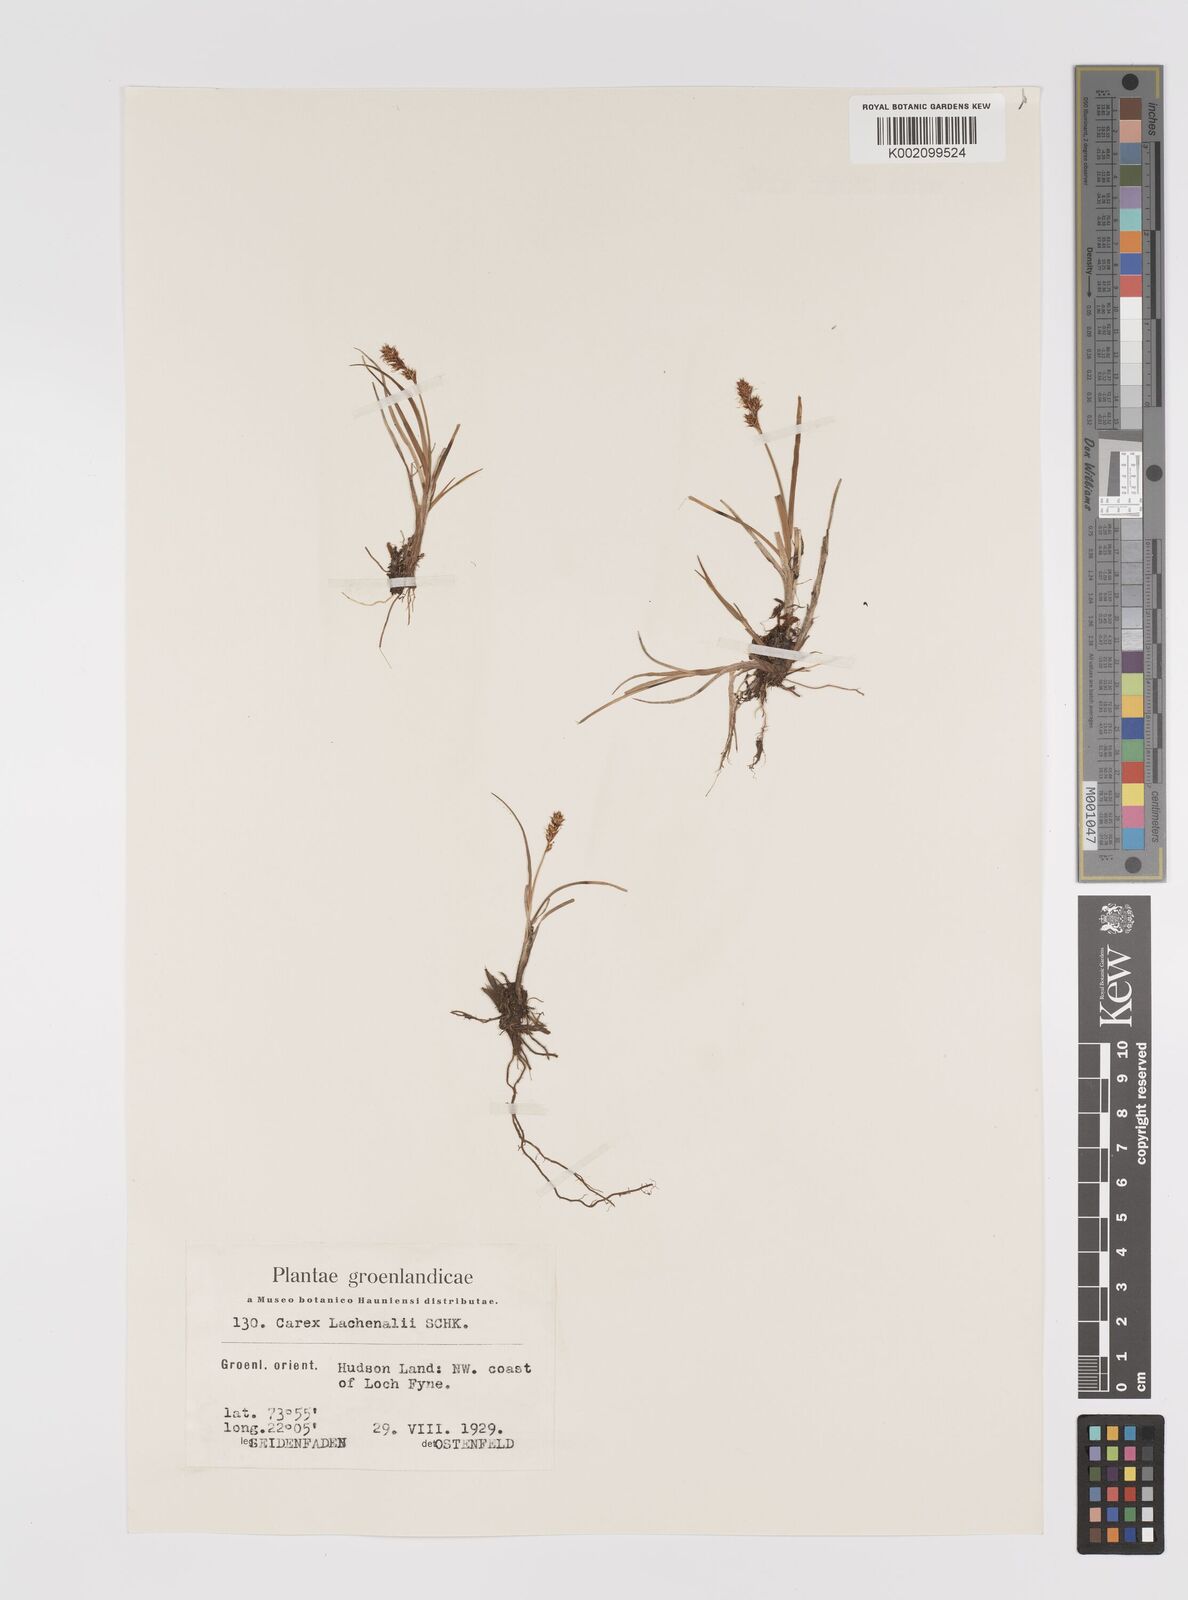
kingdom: Plantae
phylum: Tracheophyta
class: Liliopsida
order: Poales
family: Cyperaceae
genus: Carex
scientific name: Carex lachenalii
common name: Hare's-foot sedge
